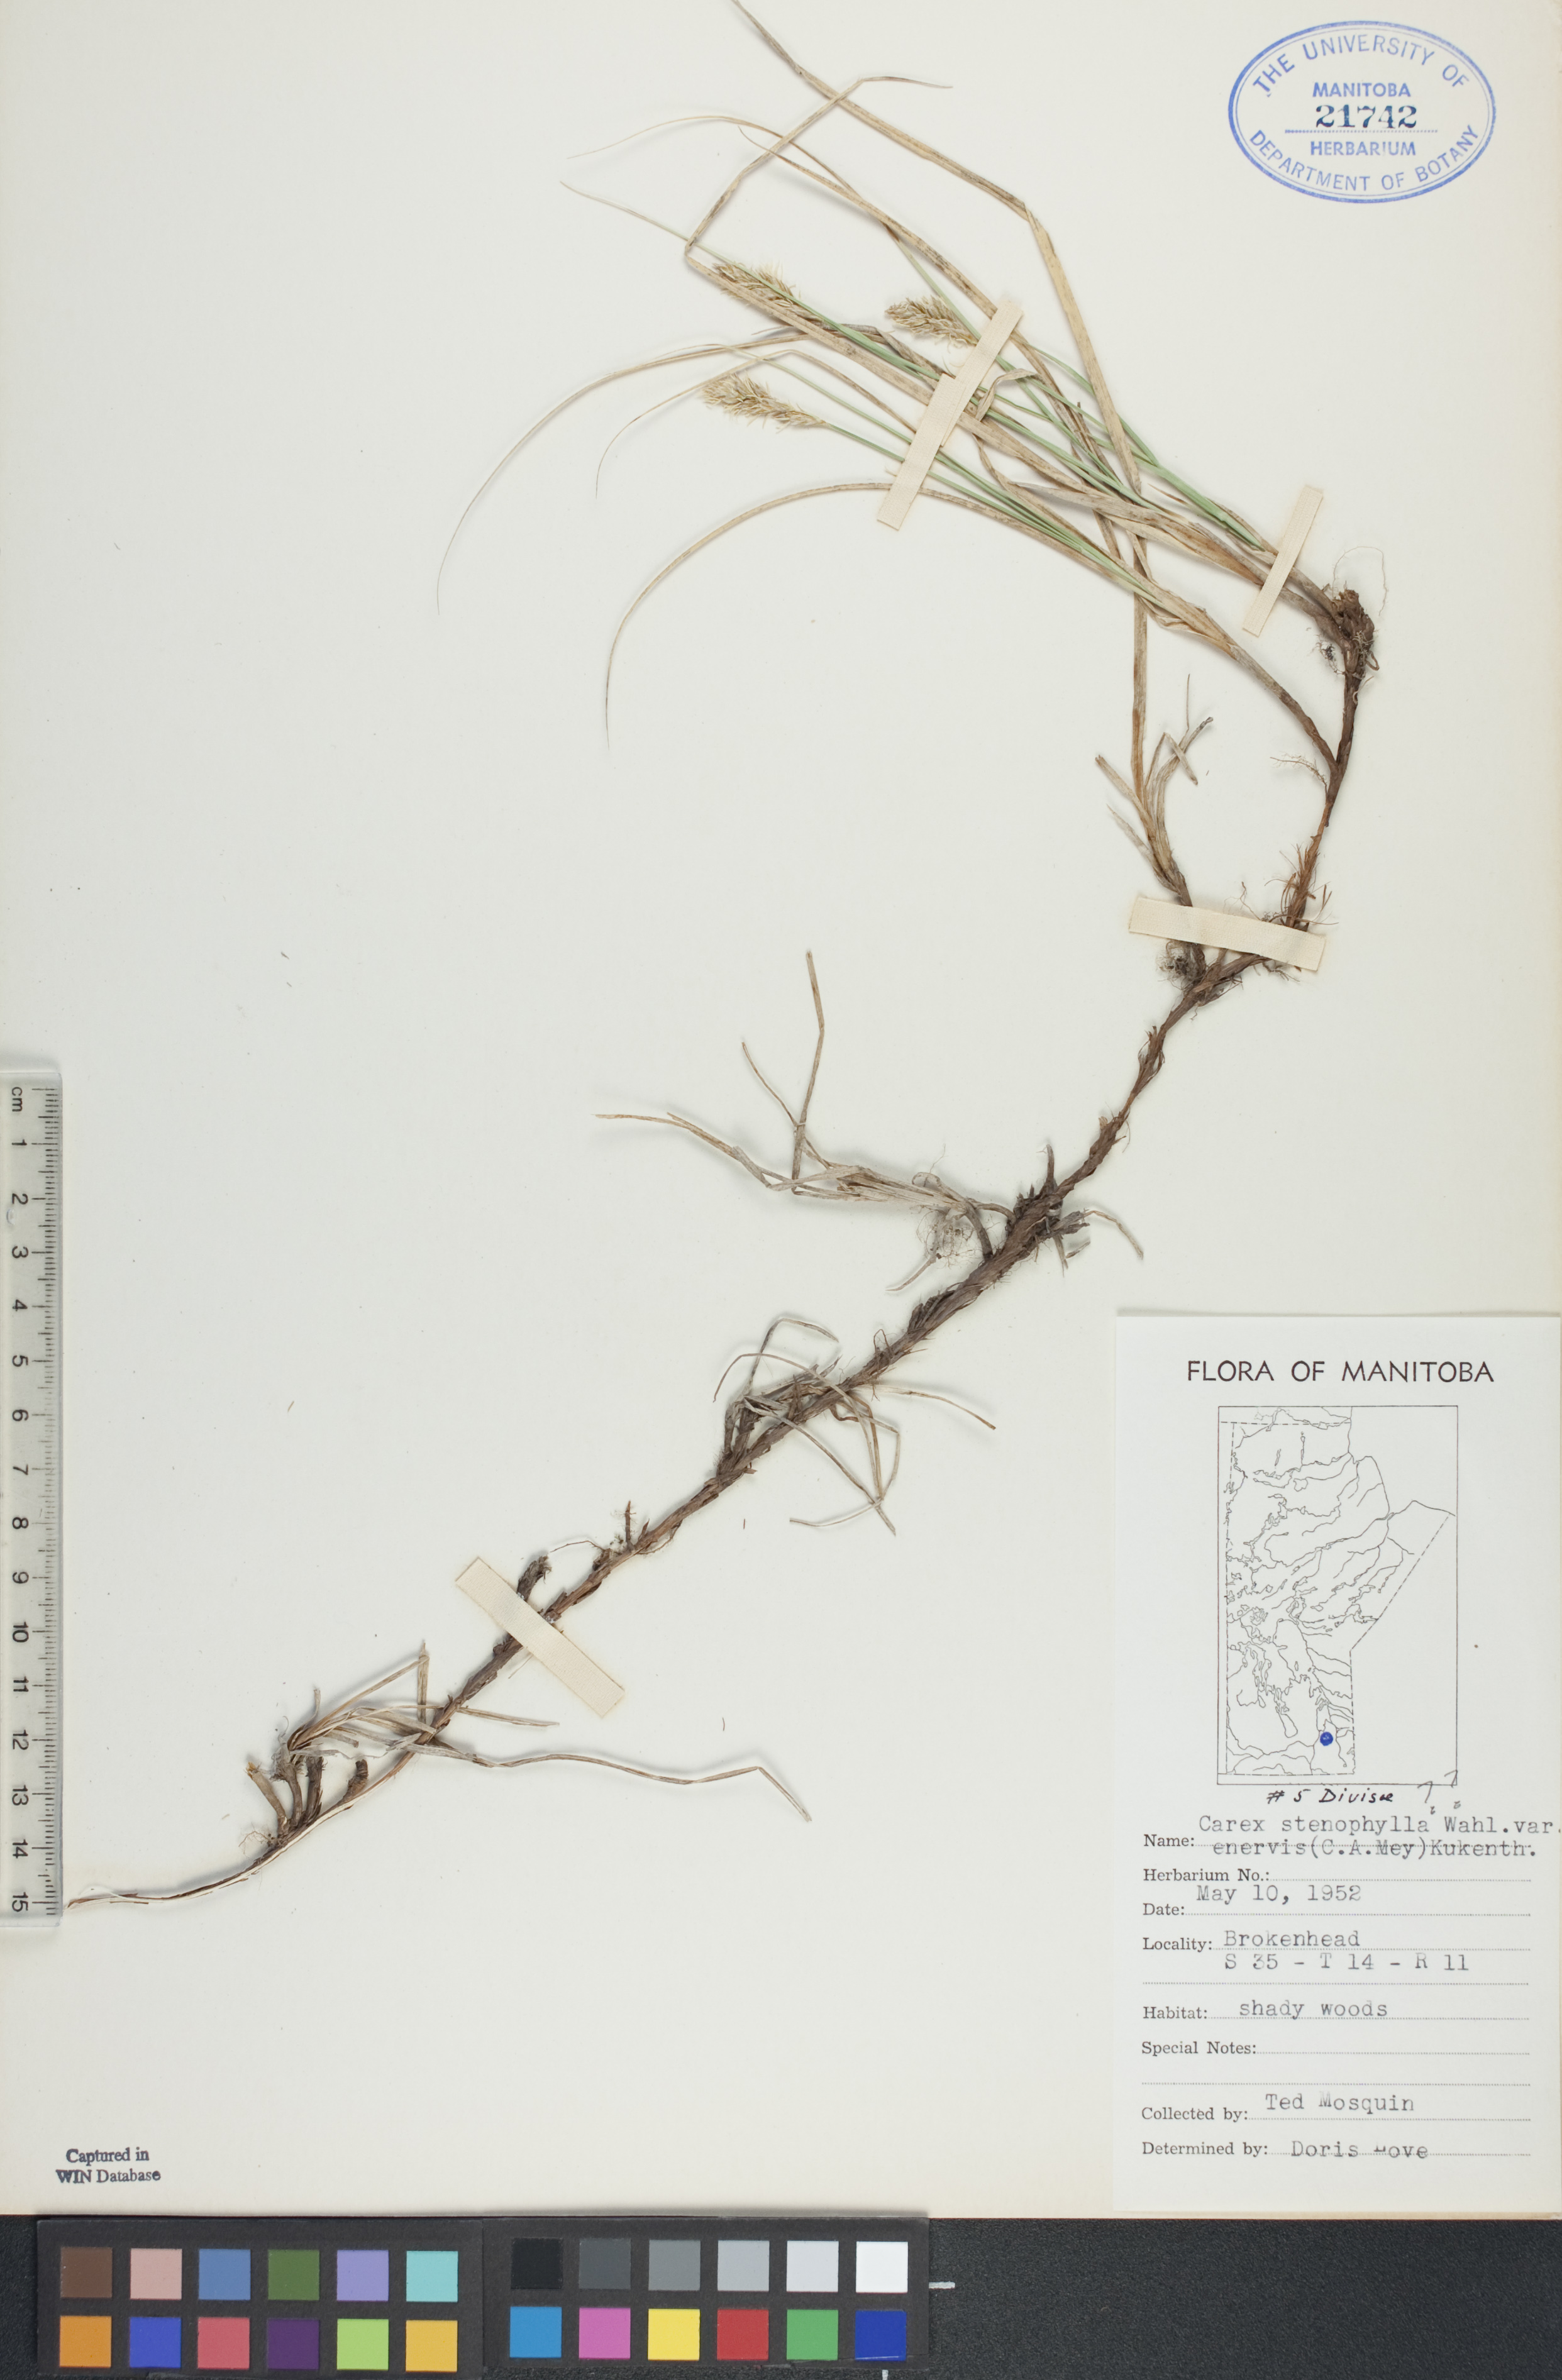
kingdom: Plantae
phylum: Tracheophyta
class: Liliopsida
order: Poales
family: Cyperaceae
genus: Carex
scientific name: Carex enervis
